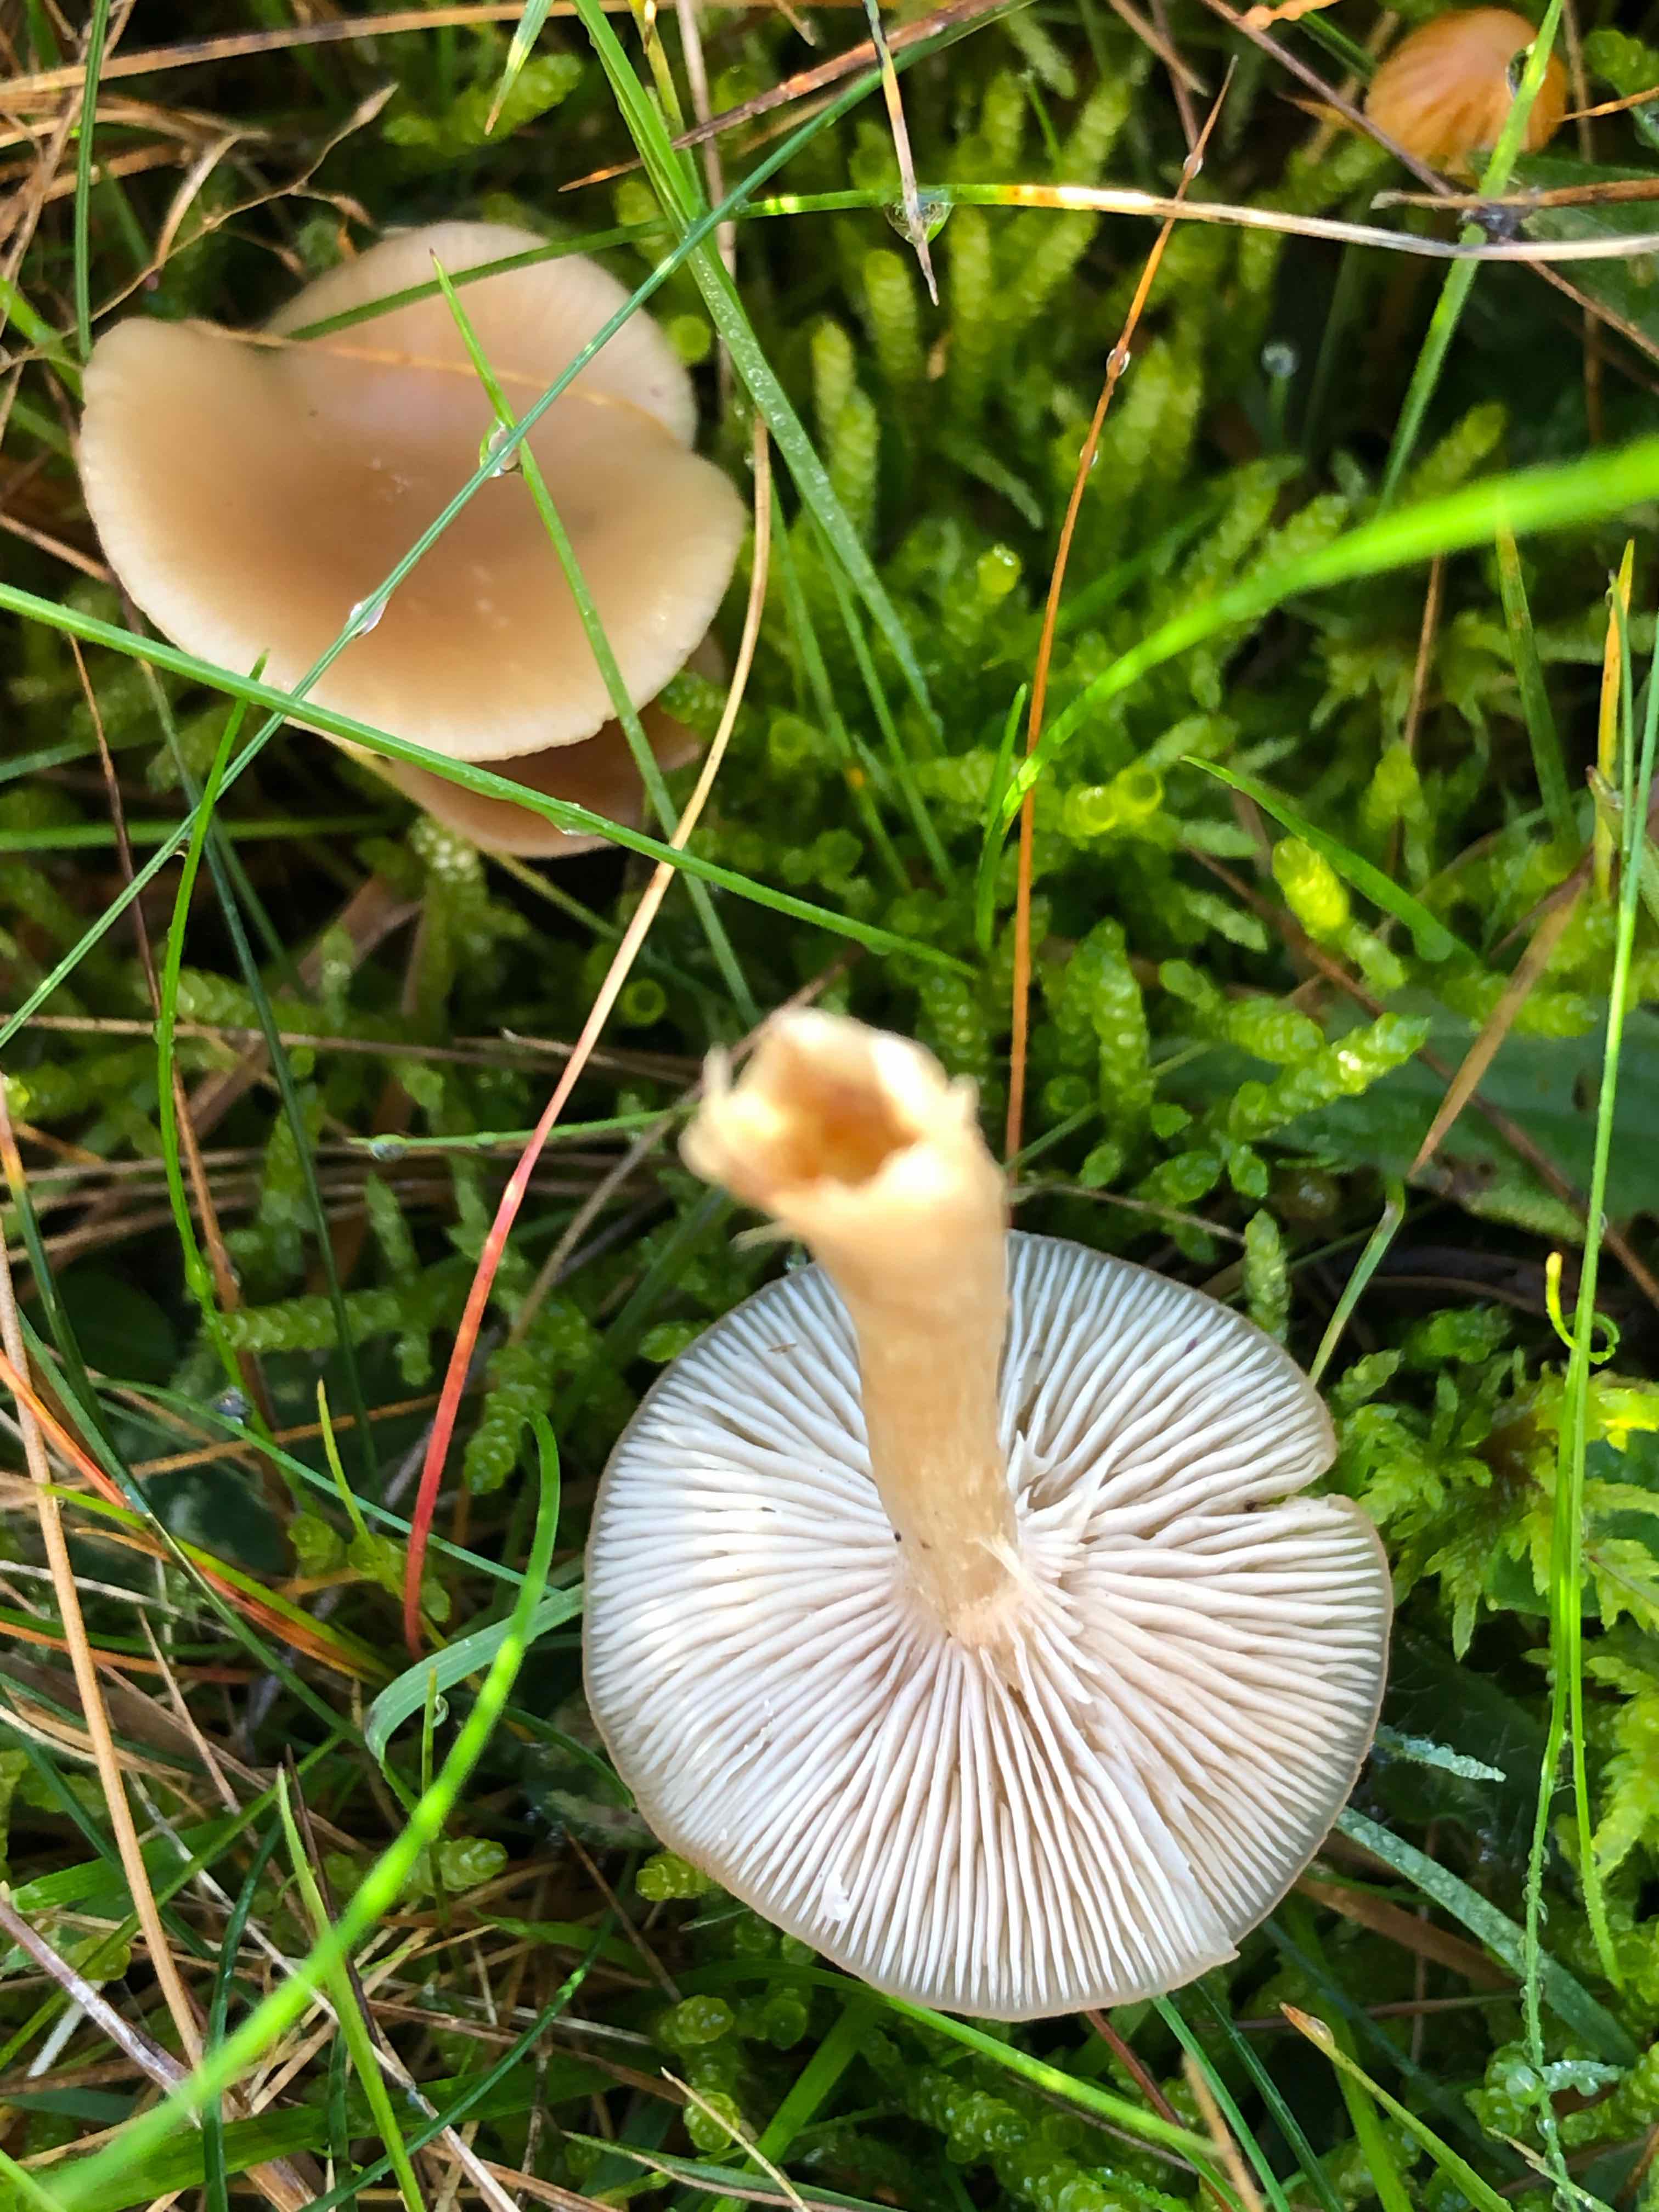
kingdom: Fungi
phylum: Basidiomycota
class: Agaricomycetes
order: Agaricales
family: Tricholomataceae
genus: Clitocybe
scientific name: Clitocybe fragrans
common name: vellugtende tragthat
